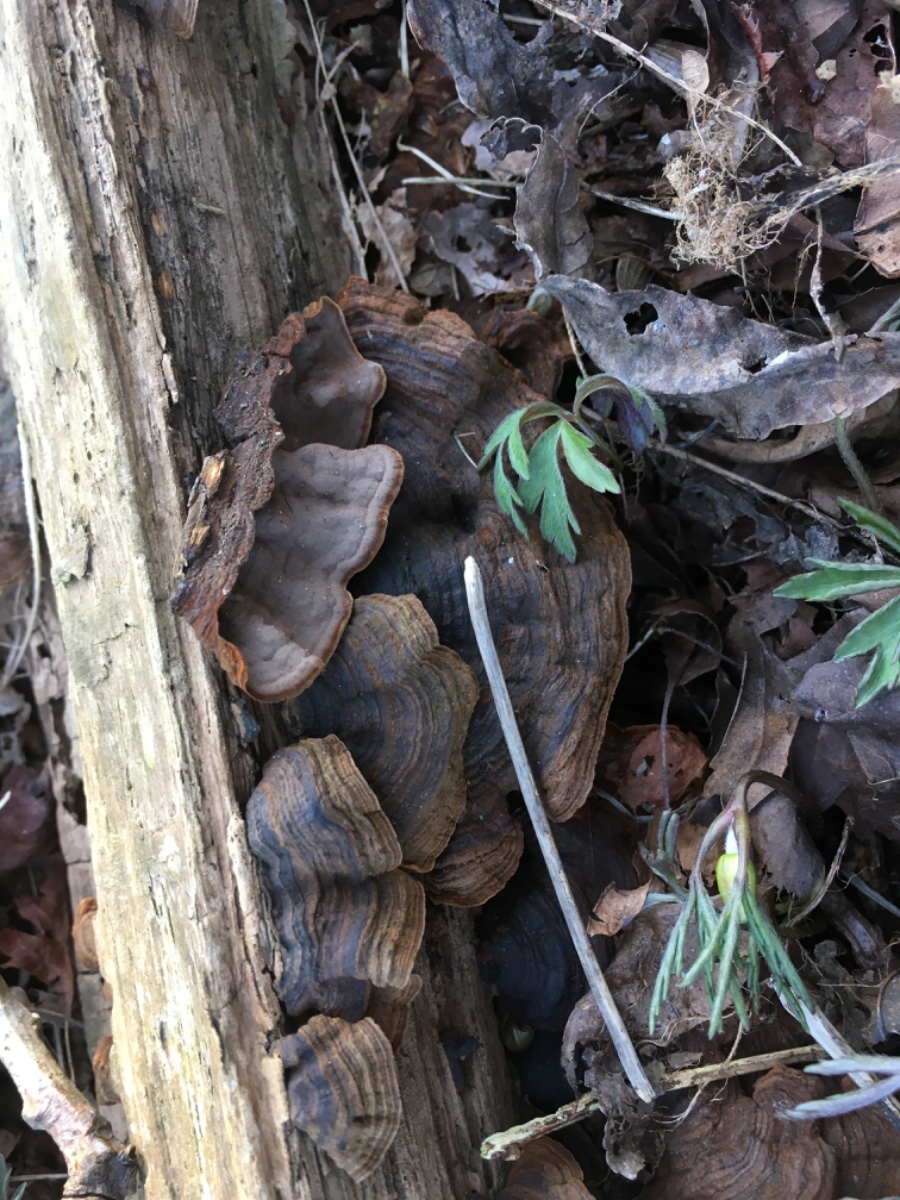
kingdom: Fungi
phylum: Basidiomycota
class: Agaricomycetes
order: Hymenochaetales
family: Hymenochaetaceae
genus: Hymenochaete
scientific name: Hymenochaete rubiginosa
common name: stiv ruslædersvamp
